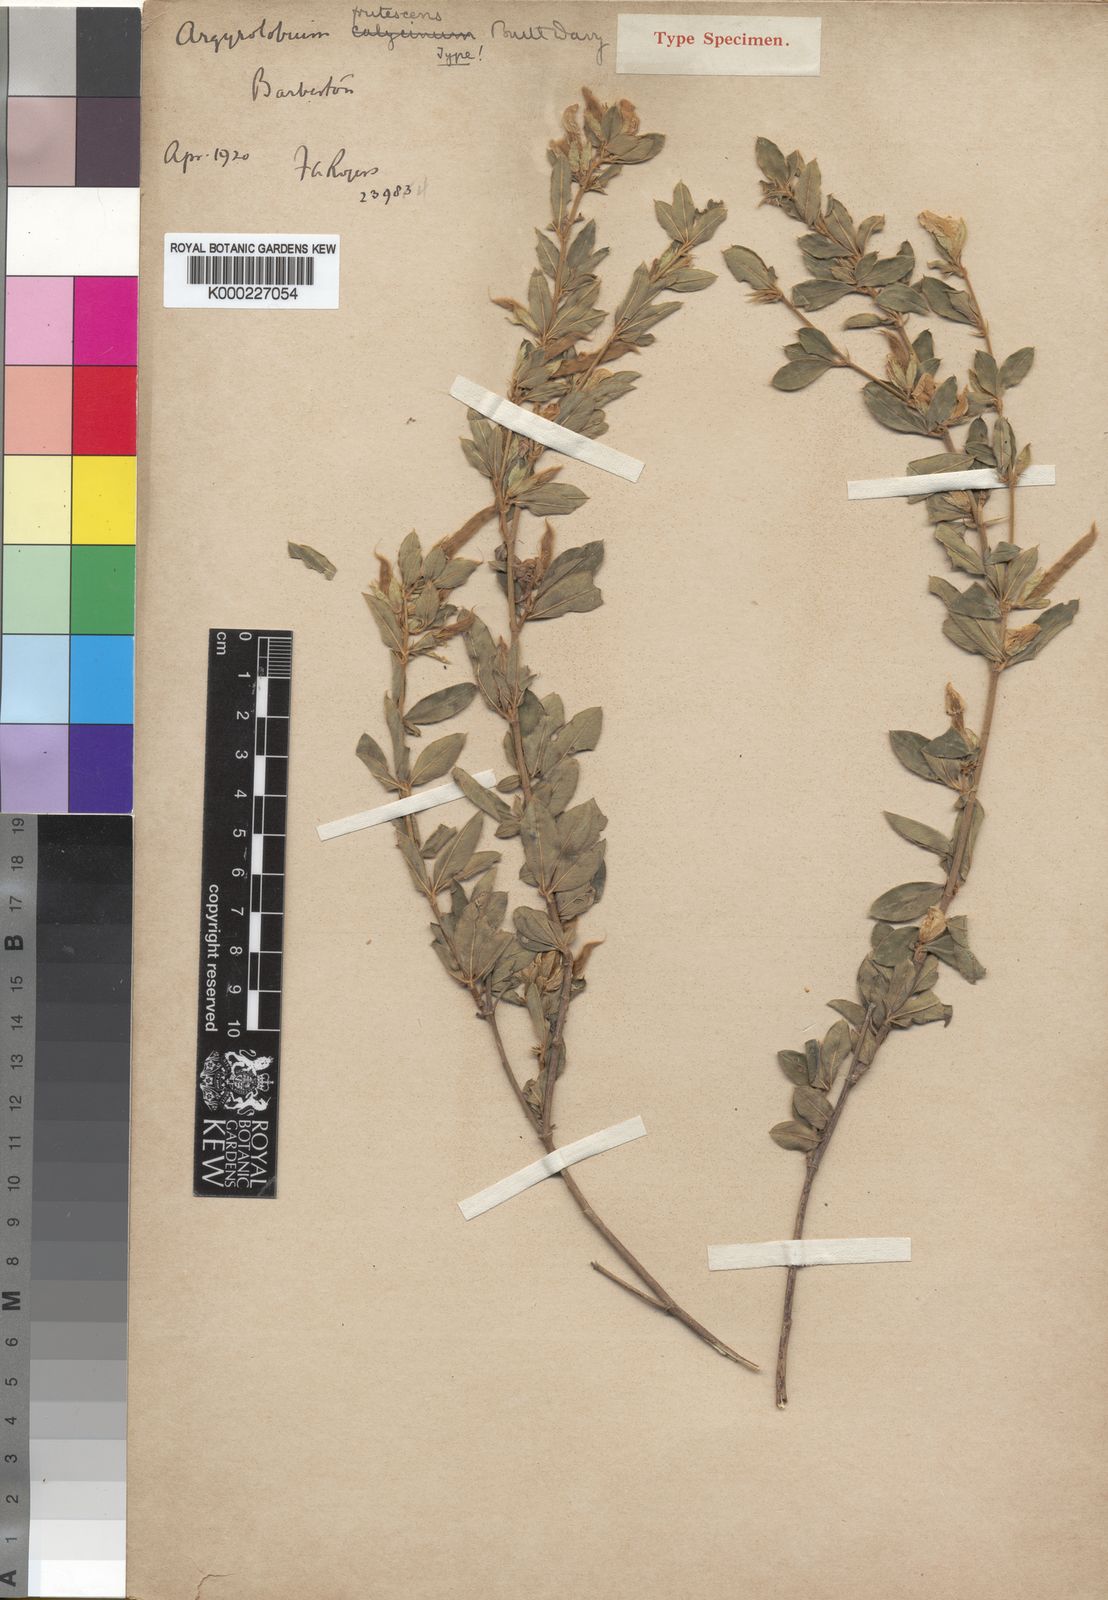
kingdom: Plantae
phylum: Tracheophyta
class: Magnoliopsida
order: Fabales
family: Fabaceae
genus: Argyrolobium
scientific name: Argyrolobium frutescens
